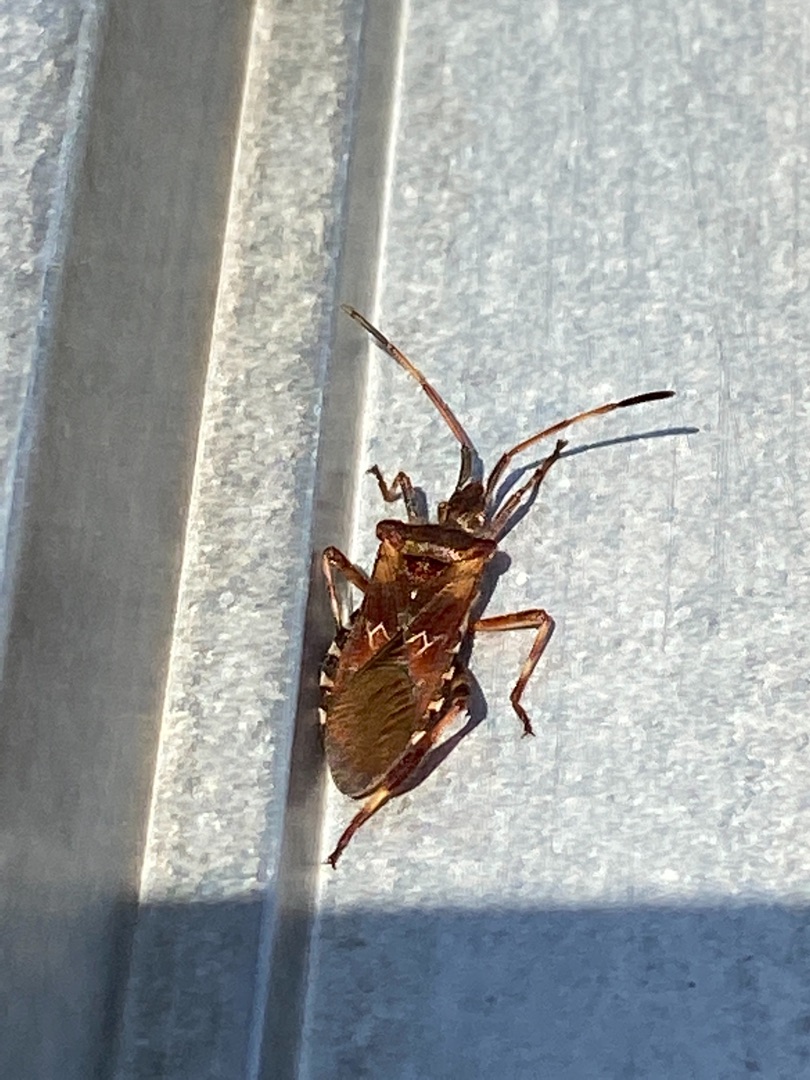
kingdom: Animalia
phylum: Arthropoda
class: Insecta
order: Hemiptera
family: Coreidae
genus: Leptoglossus
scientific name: Leptoglossus occidentalis
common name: Amerikansk fyrretæge
